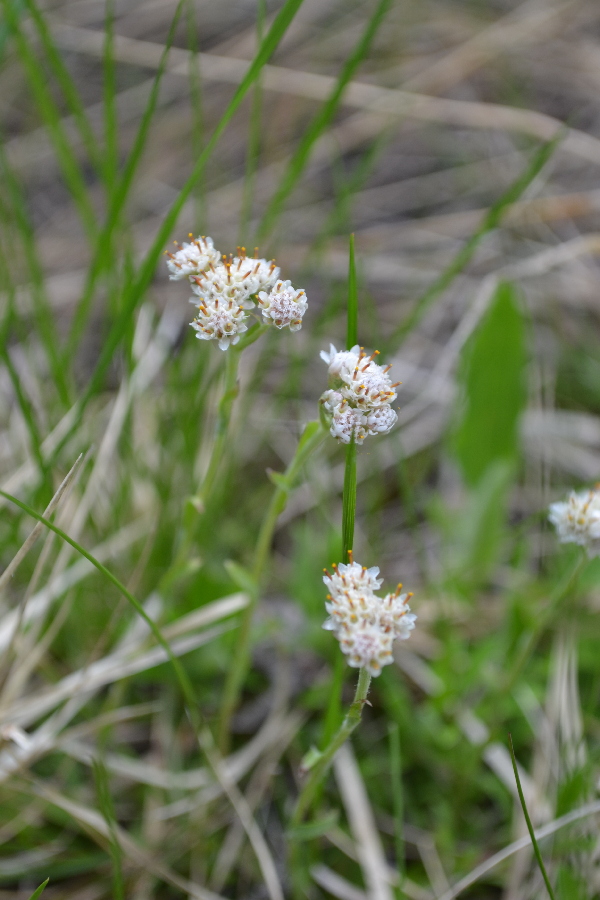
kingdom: Plantae
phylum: Tracheophyta
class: Magnoliopsida
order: Asterales
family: Asteraceae
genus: Antennaria
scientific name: Antennaria dioica
